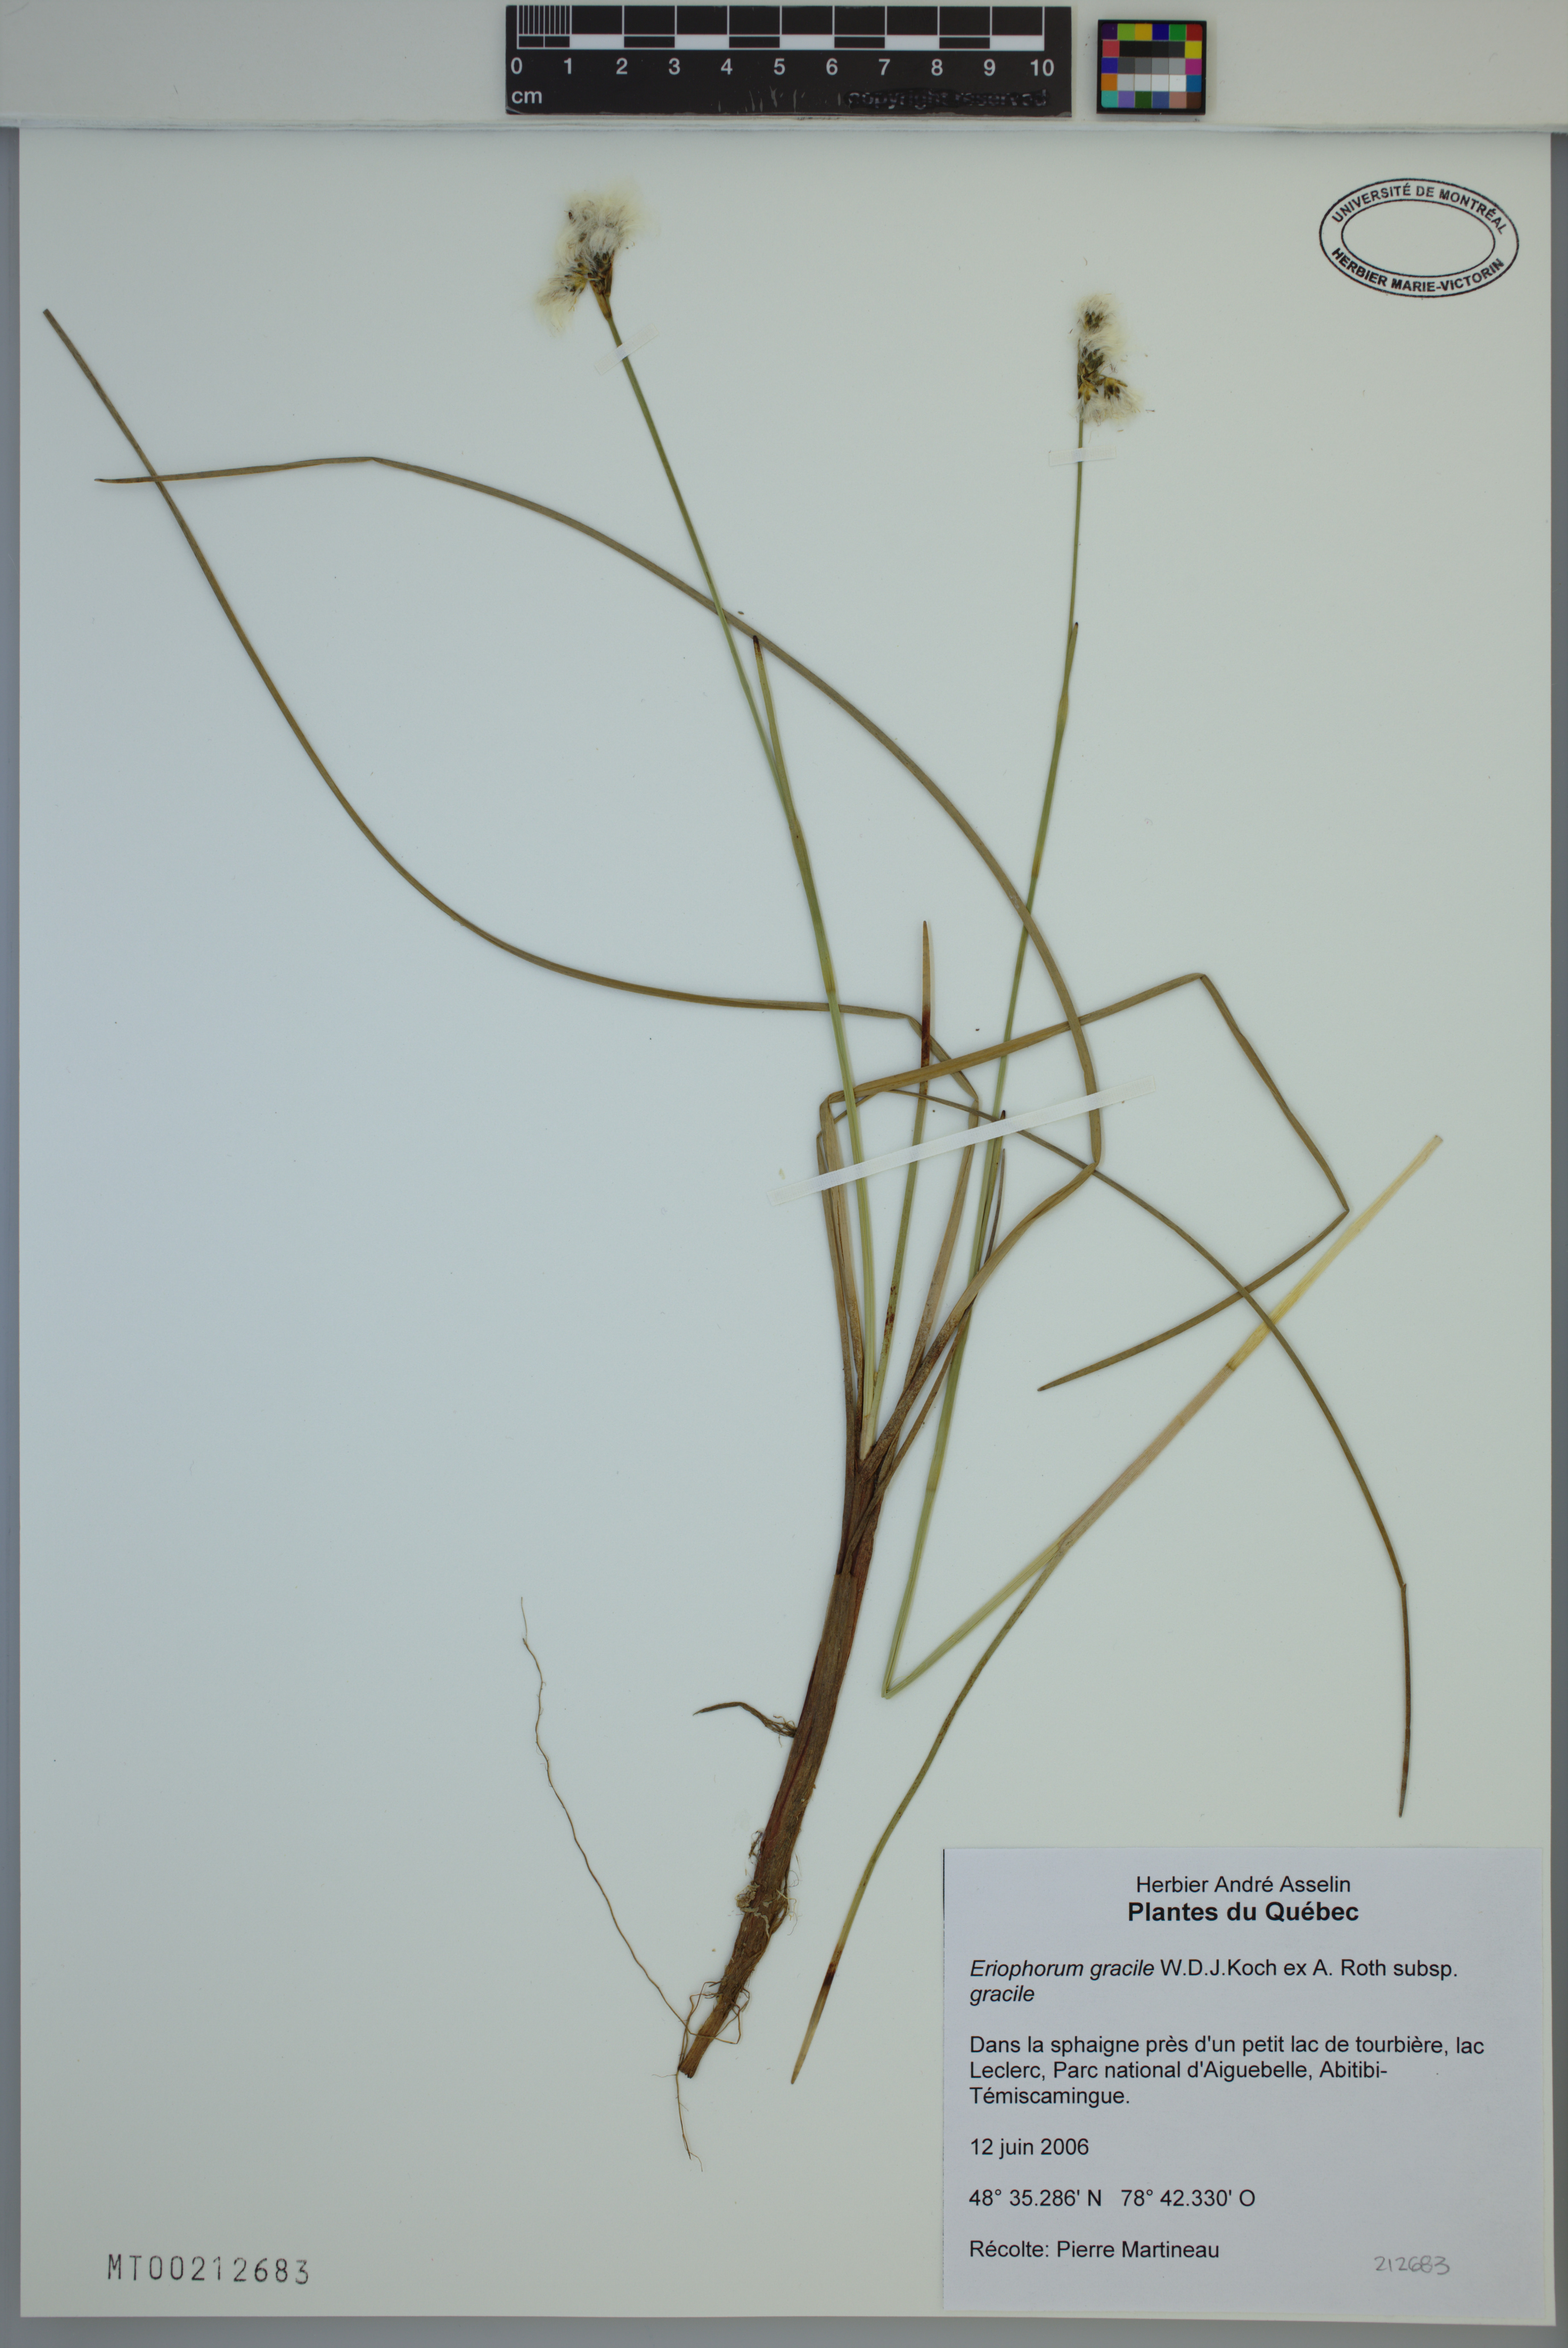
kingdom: Plantae
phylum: Tracheophyta
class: Liliopsida
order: Poales
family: Cyperaceae
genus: Eriophorum
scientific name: Eriophorum gracile
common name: Slender cottongrass
